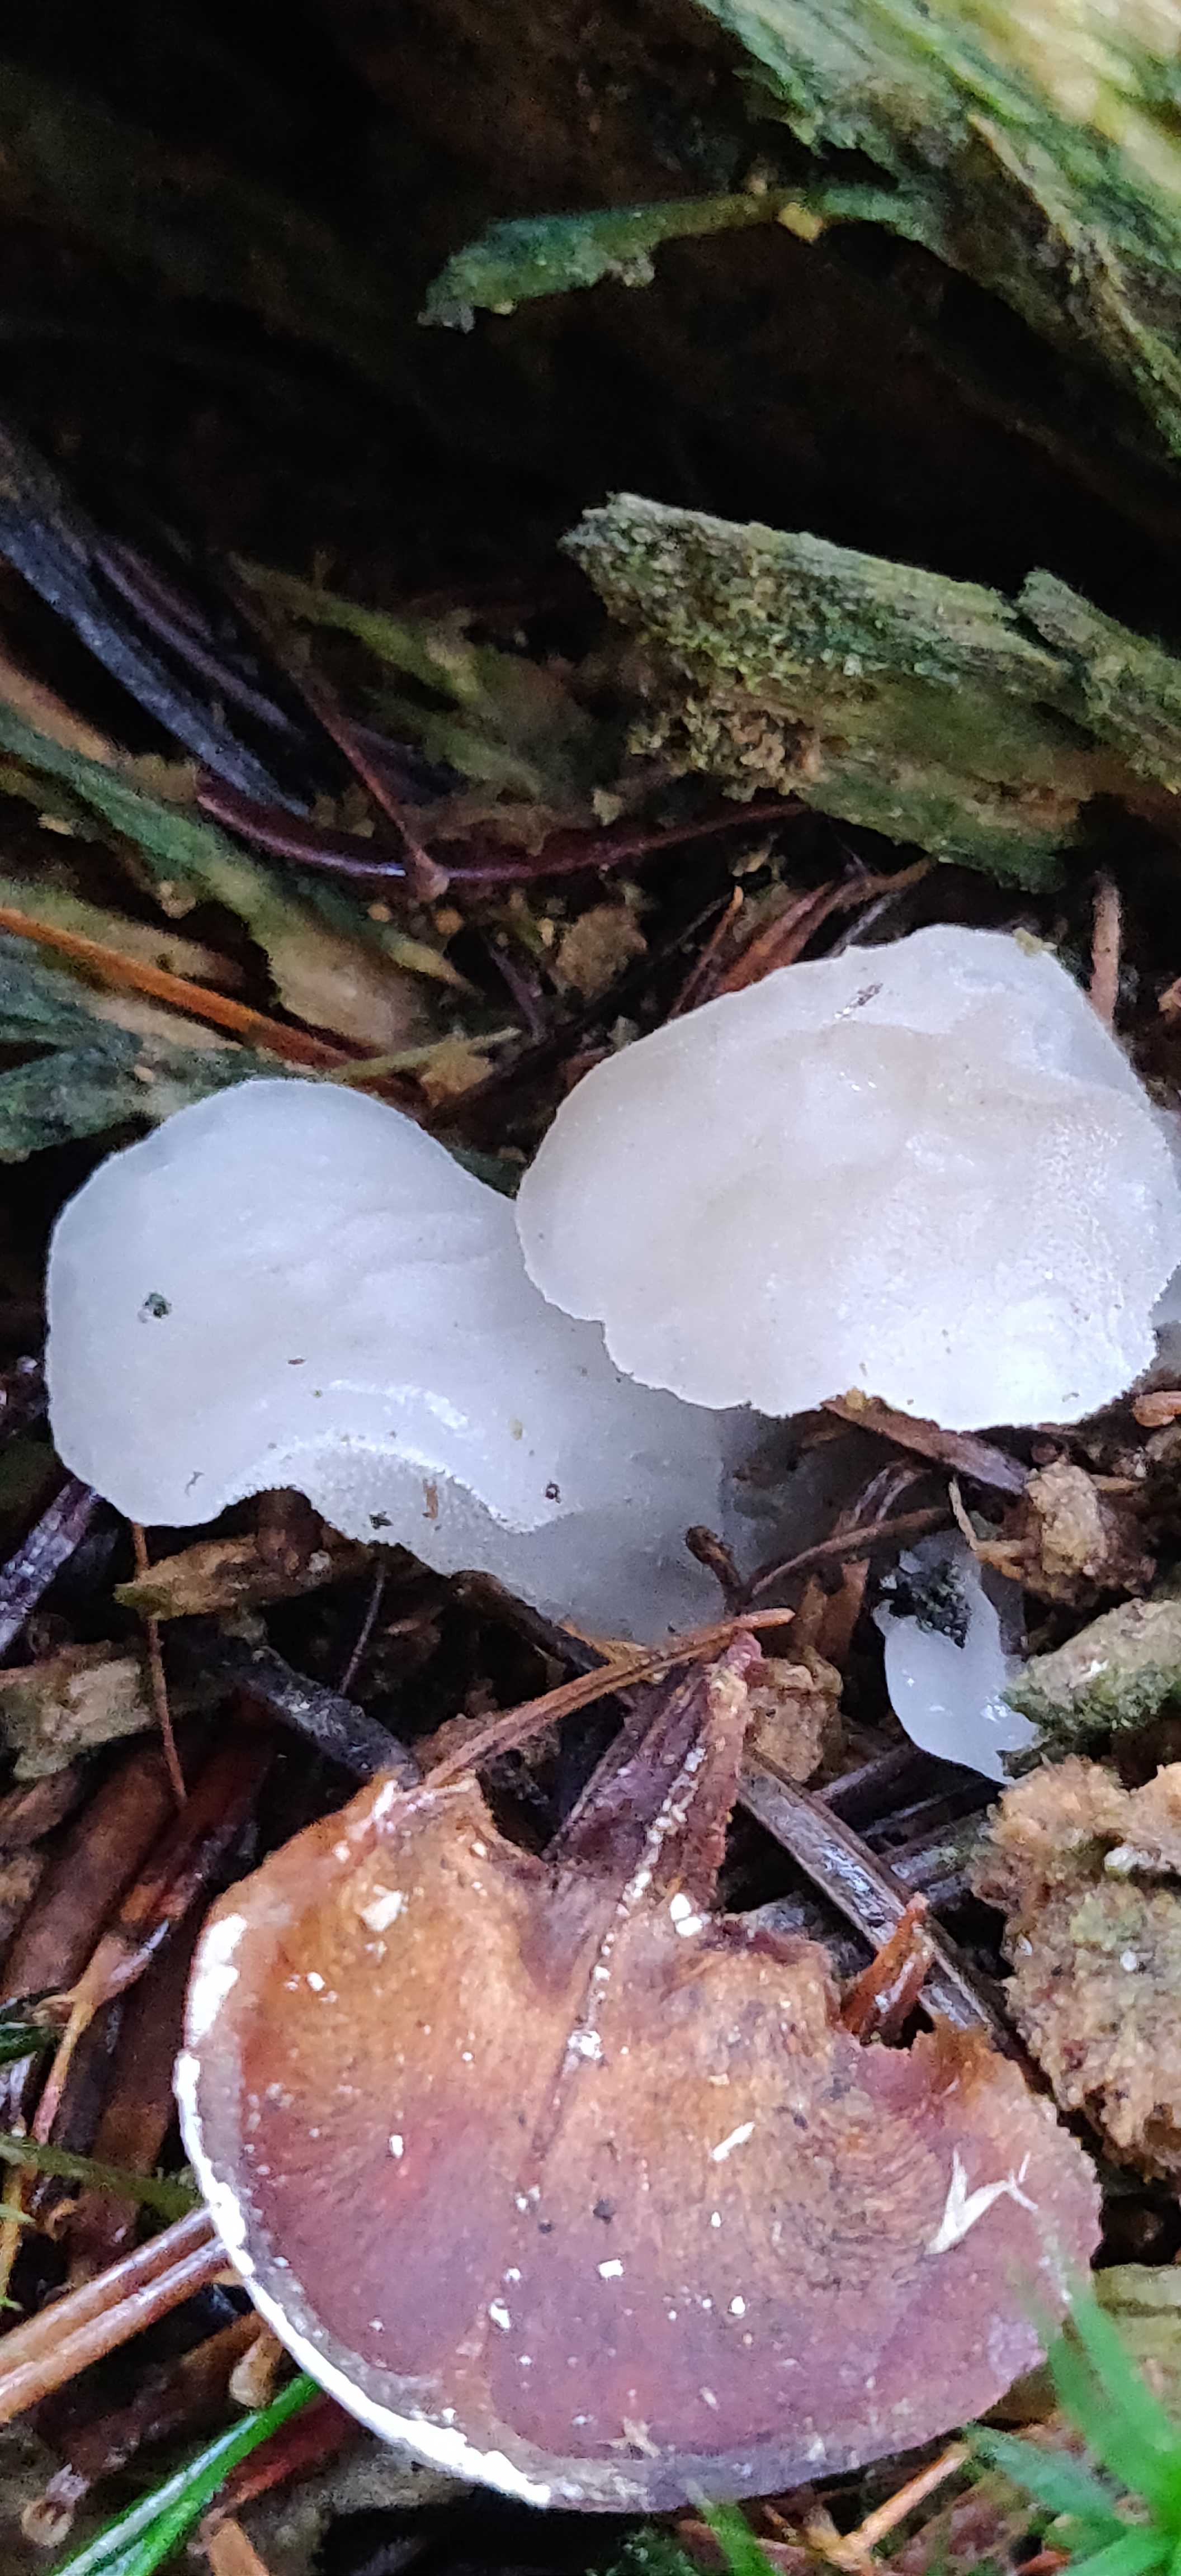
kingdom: Fungi
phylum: Basidiomycota
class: Agaricomycetes
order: Auriculariales
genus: Pseudohydnum
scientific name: Pseudohydnum gelatinosum
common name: bævretand
